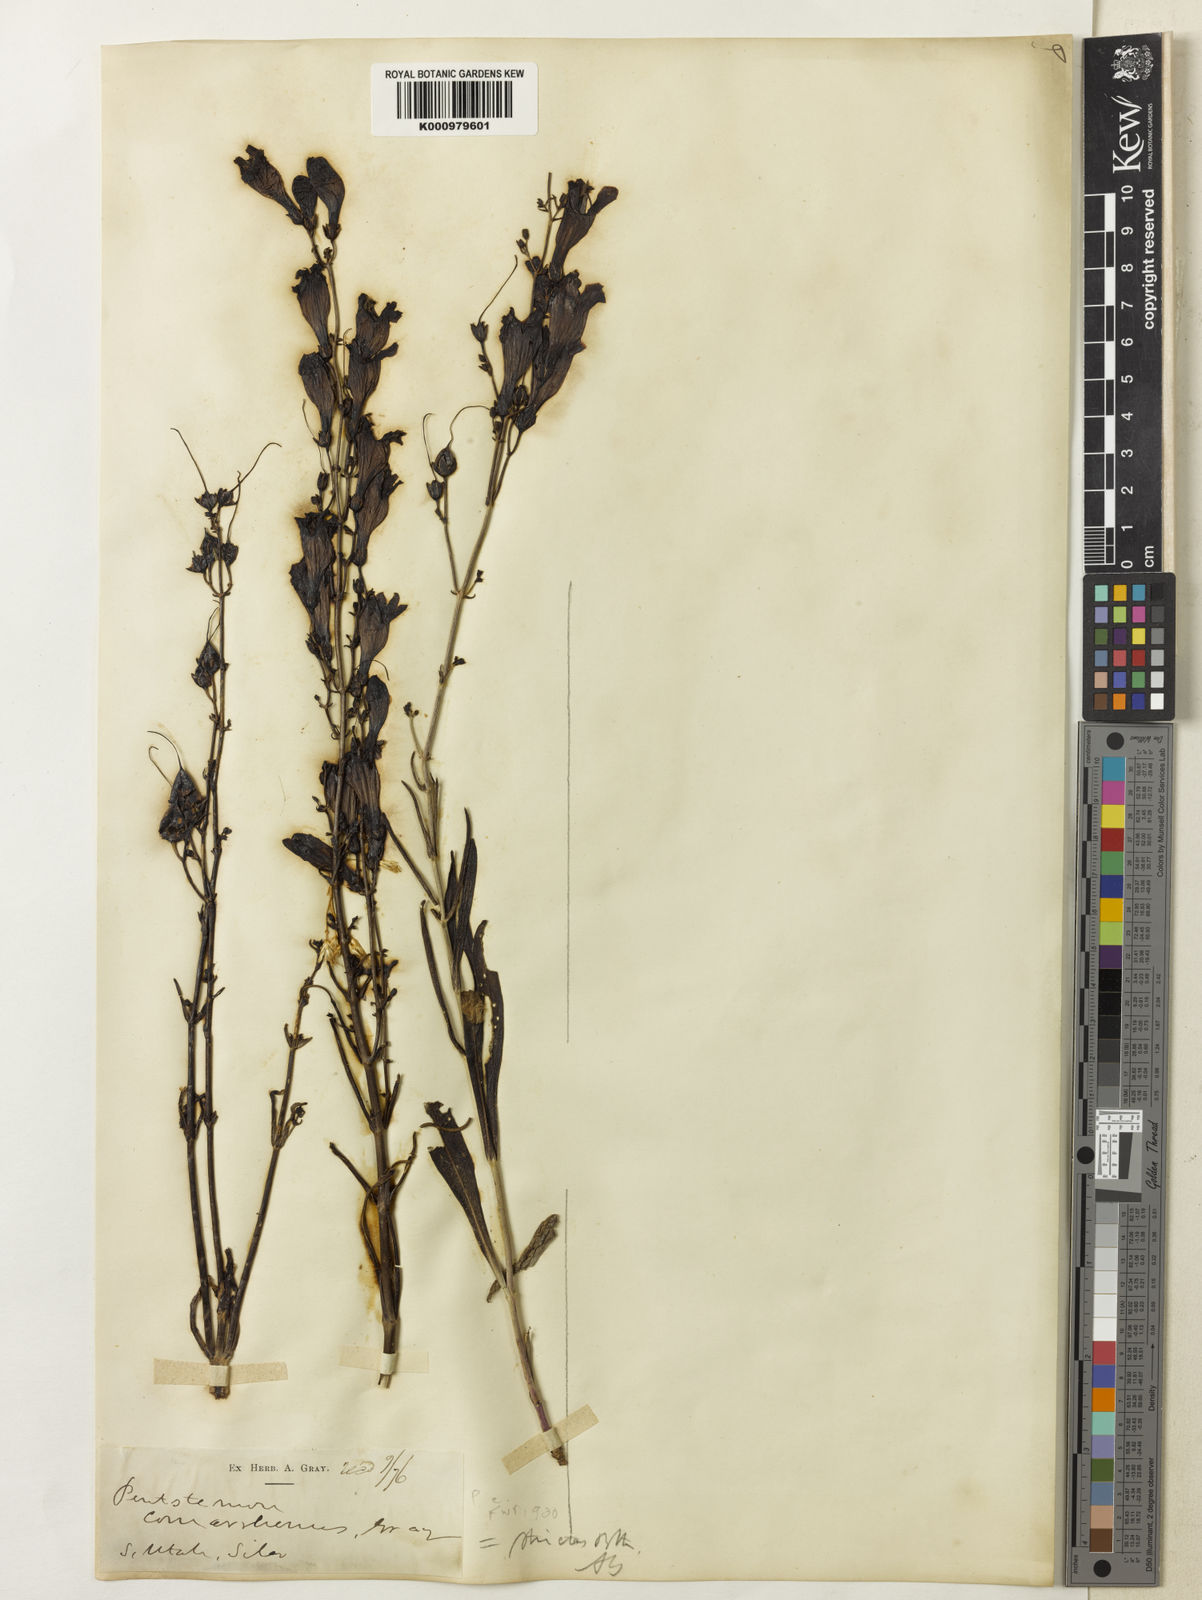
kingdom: Plantae
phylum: Tracheophyta
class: Magnoliopsida
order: Lamiales
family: Plantaginaceae
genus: Penstemon
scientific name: Penstemon comarrhenus
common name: Dusty penstemon
